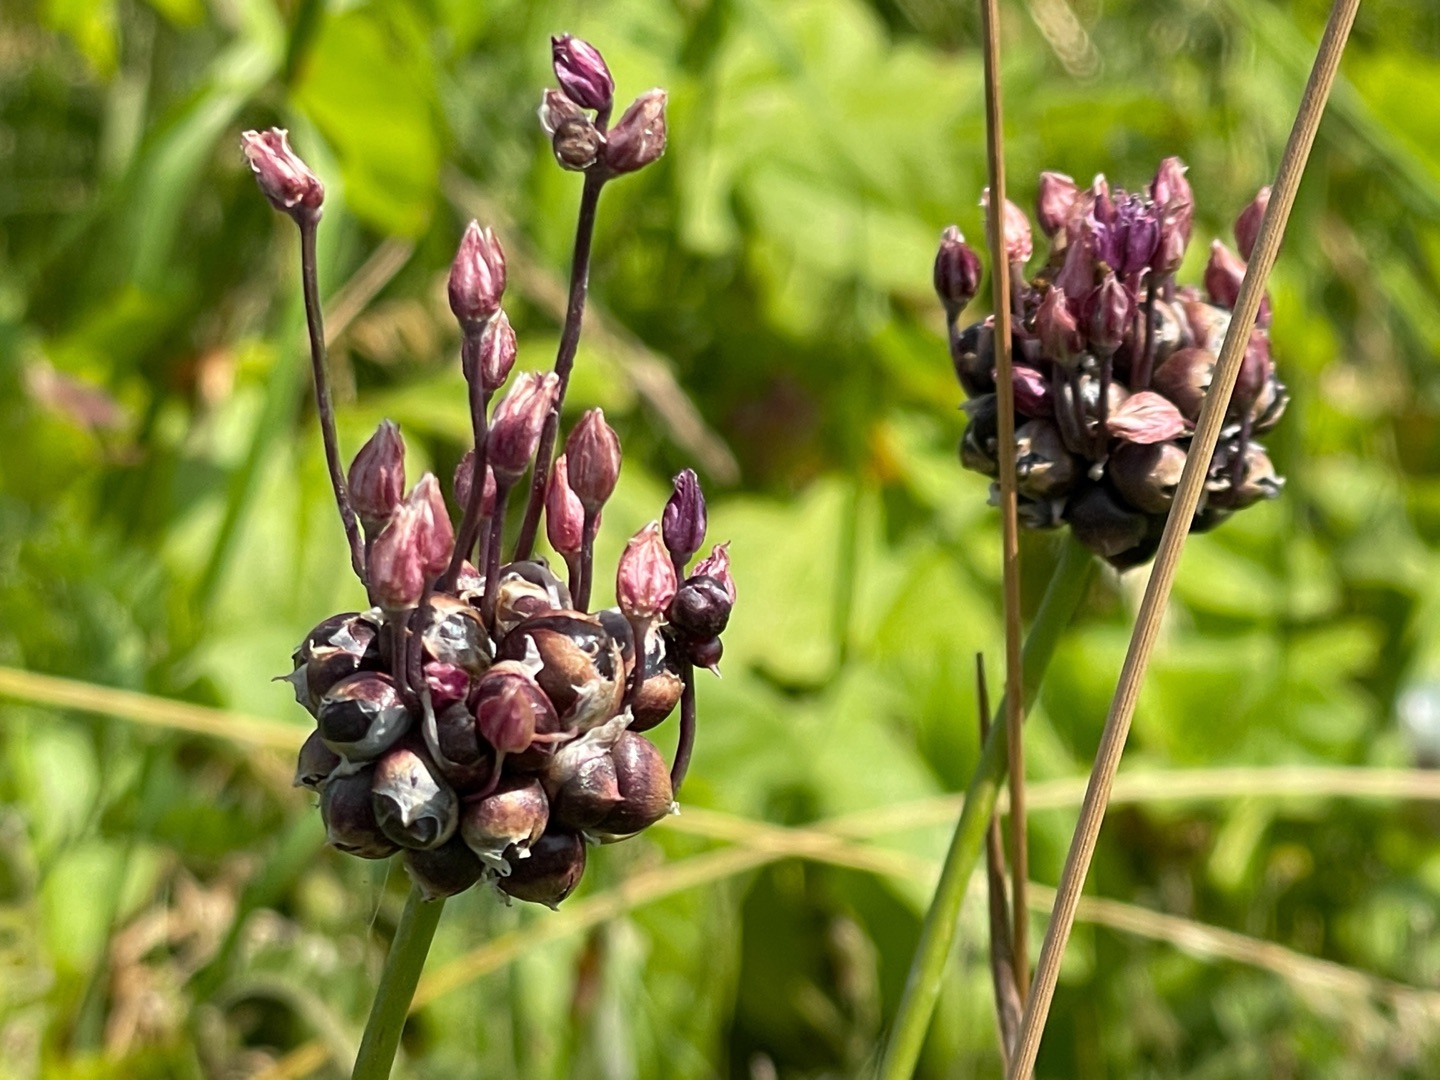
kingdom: Plantae
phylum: Tracheophyta
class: Liliopsida
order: Asparagales
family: Amaryllidaceae
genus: Allium
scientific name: Allium scorodoprasum
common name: Skov-løg
